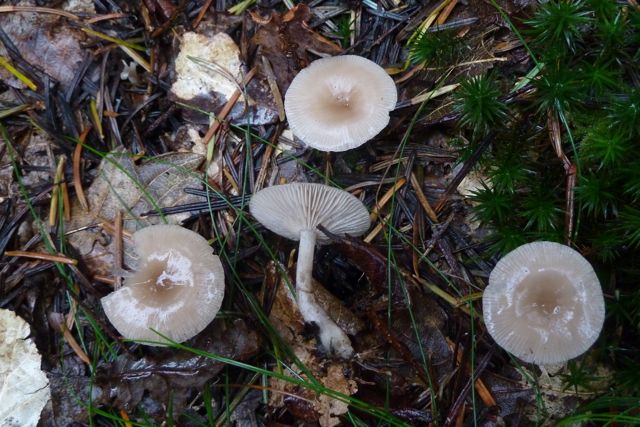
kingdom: Fungi
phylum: Basidiomycota
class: Agaricomycetes
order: Agaricales
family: Tricholomataceae
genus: Clitocybe
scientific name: Clitocybe vibecina
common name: randstribet tragthat
